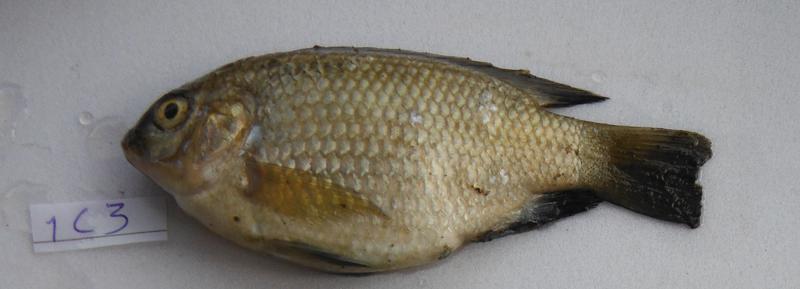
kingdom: Animalia
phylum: Chordata
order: Perciformes
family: Cichlidae
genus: Oreochromis
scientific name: Oreochromis urolepis
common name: Wami tilapia
